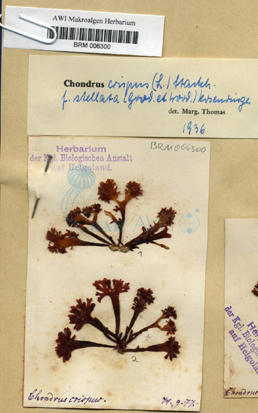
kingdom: Plantae
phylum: Rhodophyta
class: Florideophyceae
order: Gigartinales
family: Gigartinaceae
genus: Chondrus
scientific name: Chondrus crispus
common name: Carrageen
